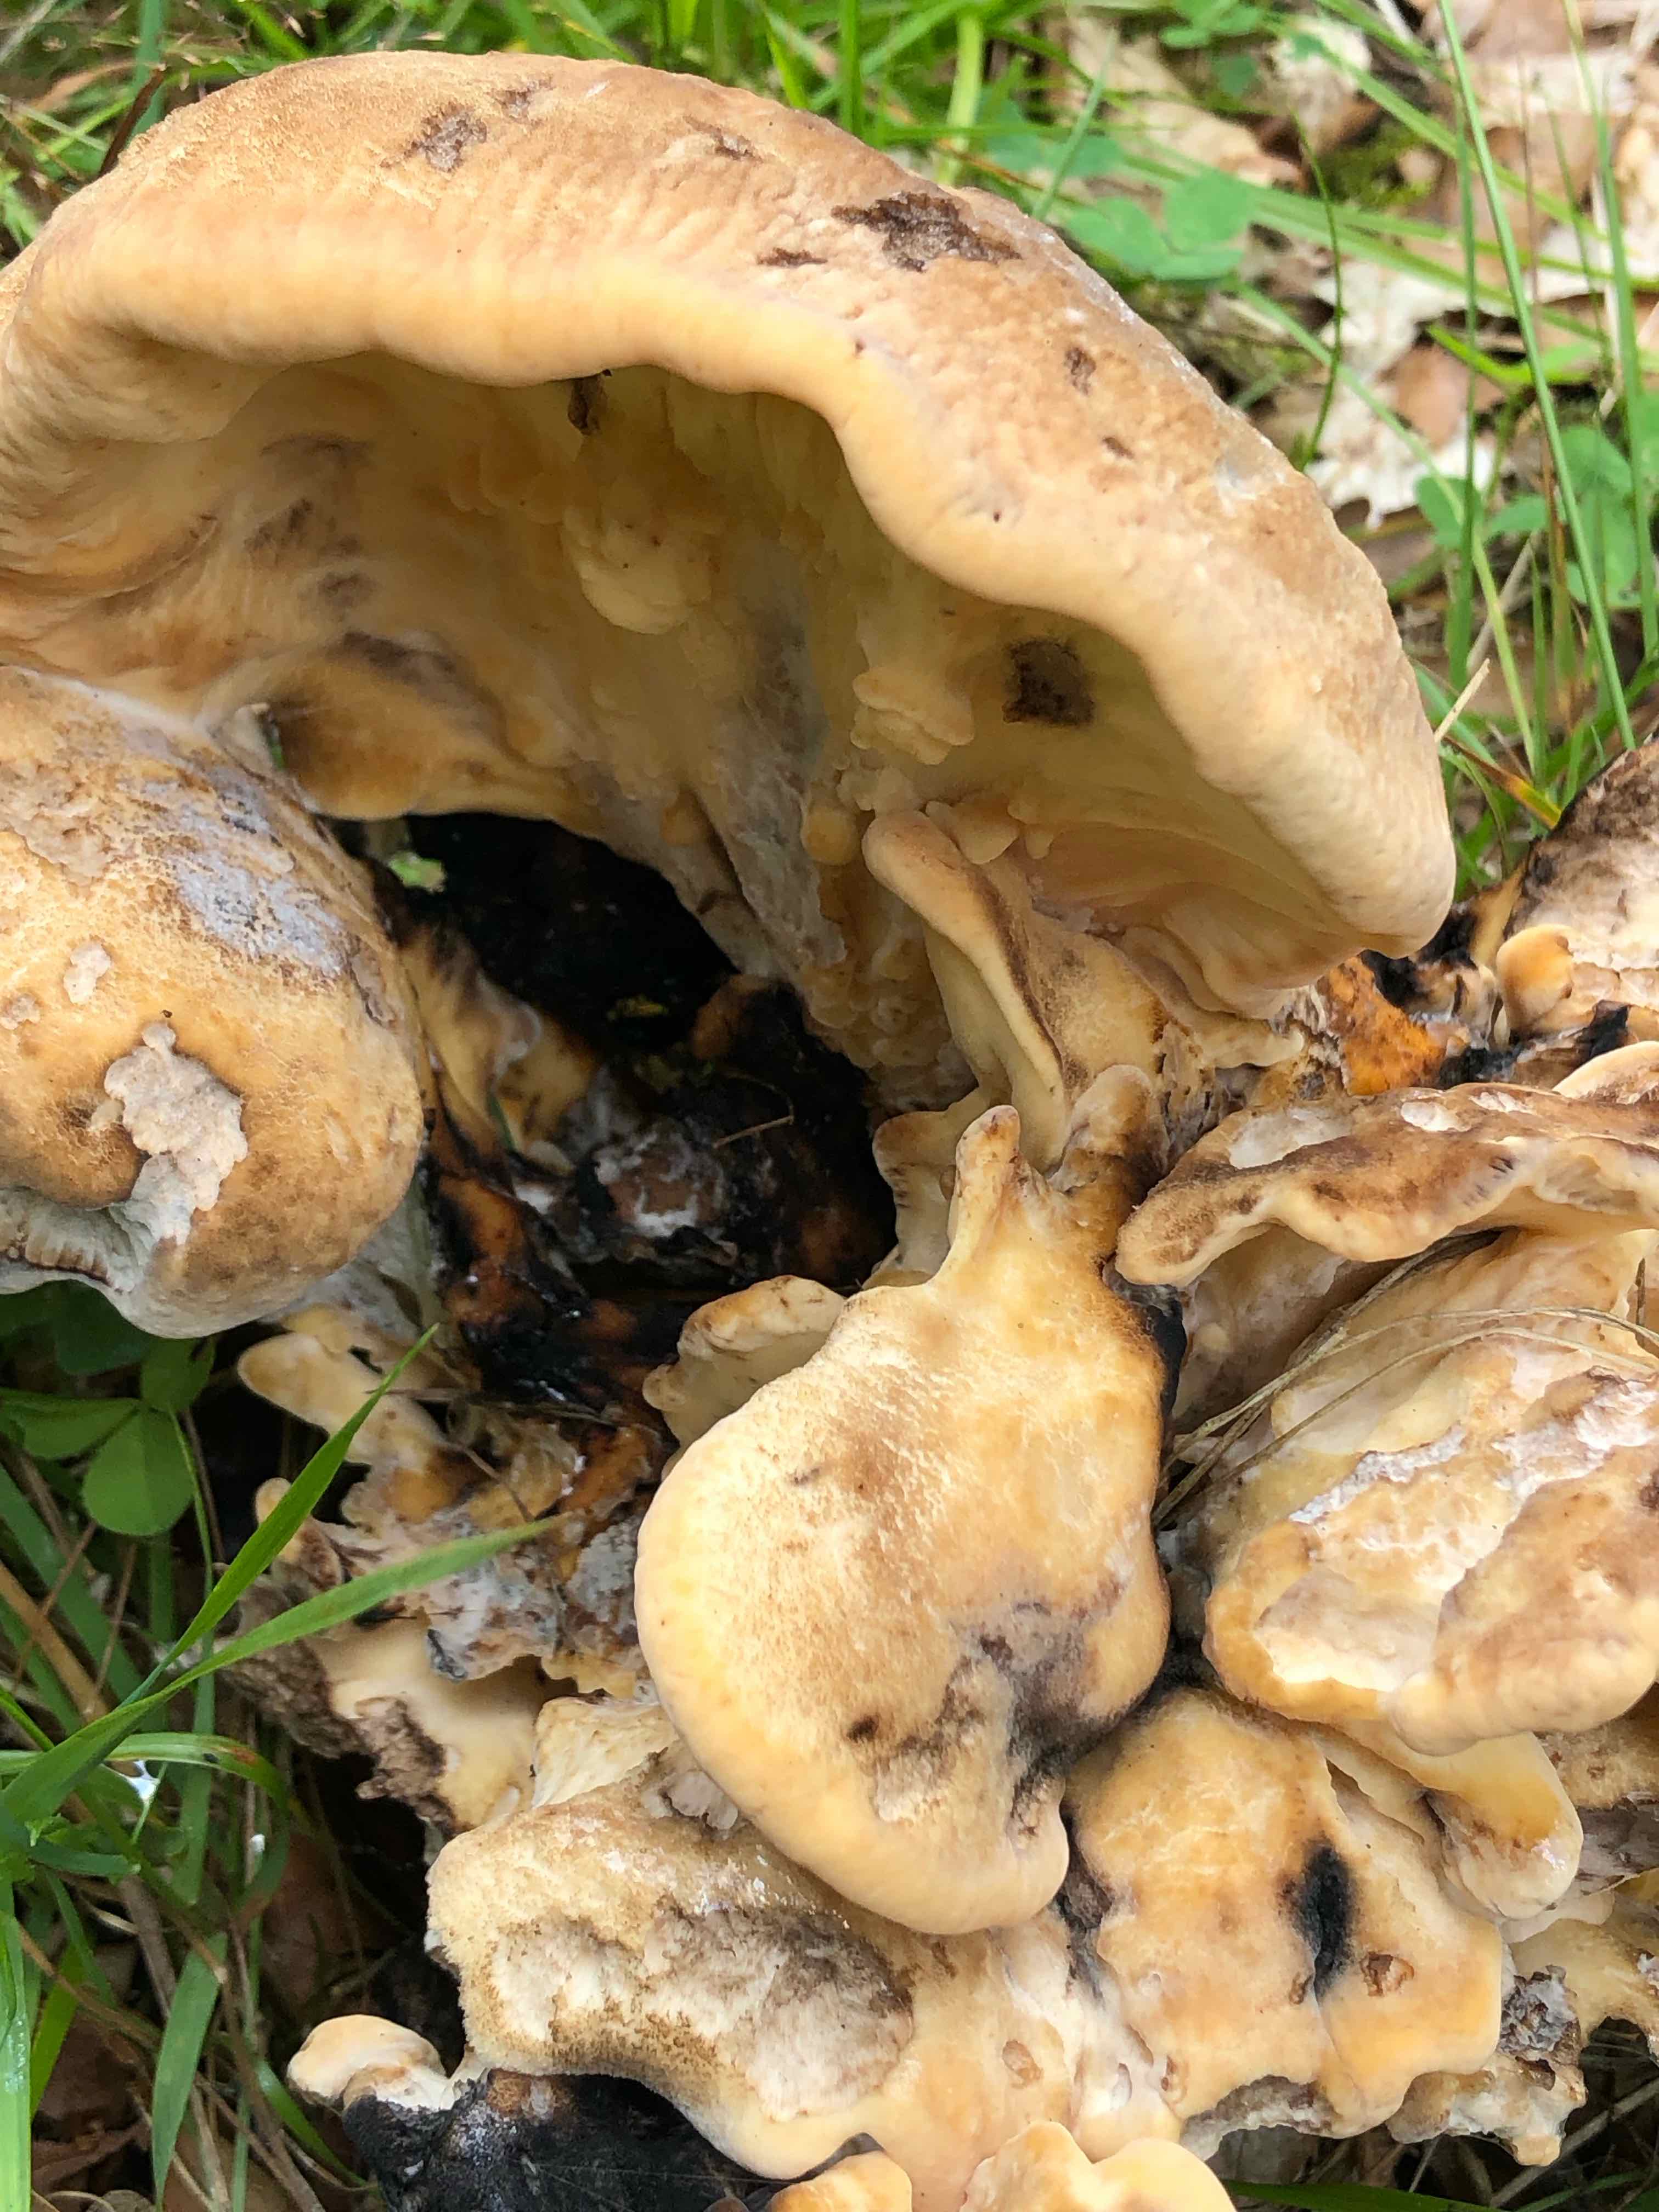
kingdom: Fungi
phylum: Basidiomycota
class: Agaricomycetes
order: Polyporales
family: Meripilaceae
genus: Meripilus
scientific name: Meripilus giganteus
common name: kæmpeporesvamp
